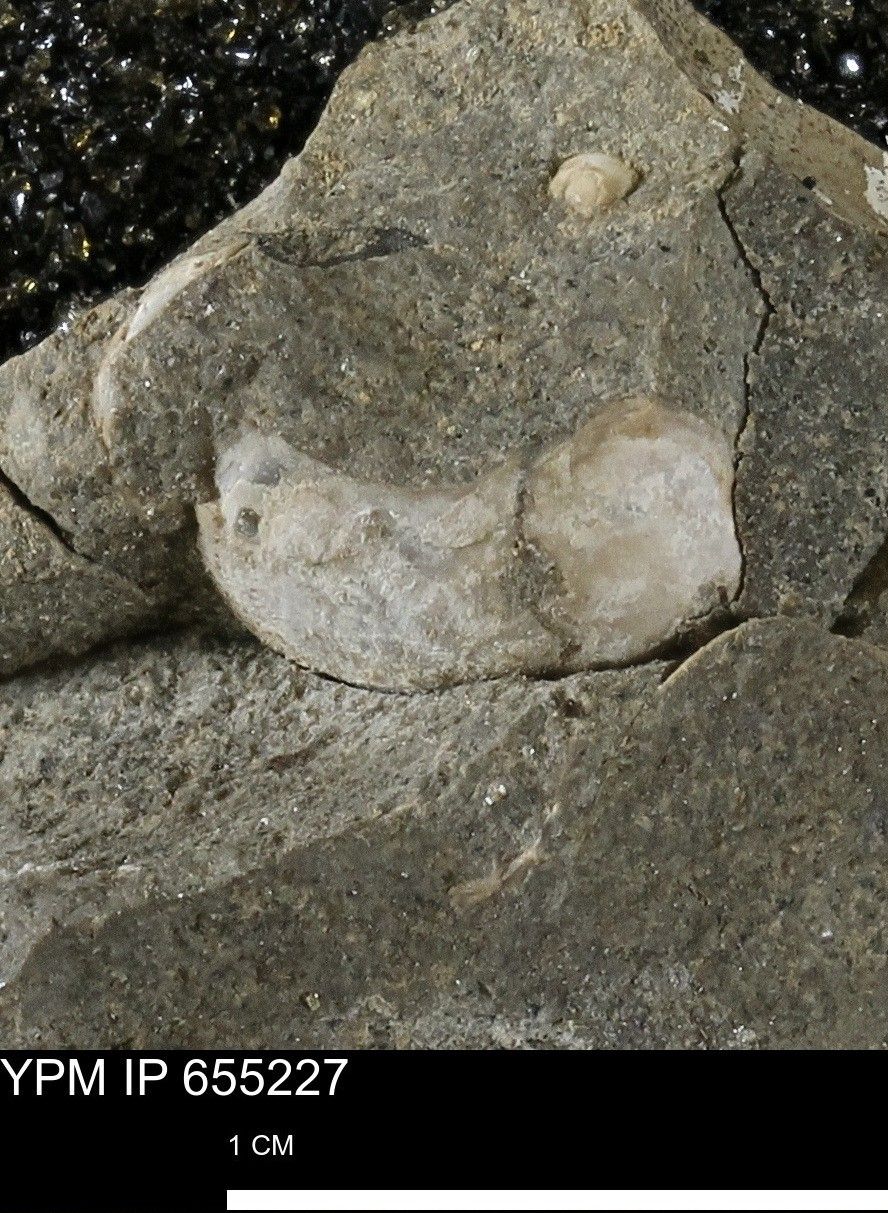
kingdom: Animalia
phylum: Mollusca
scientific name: Mollusca
